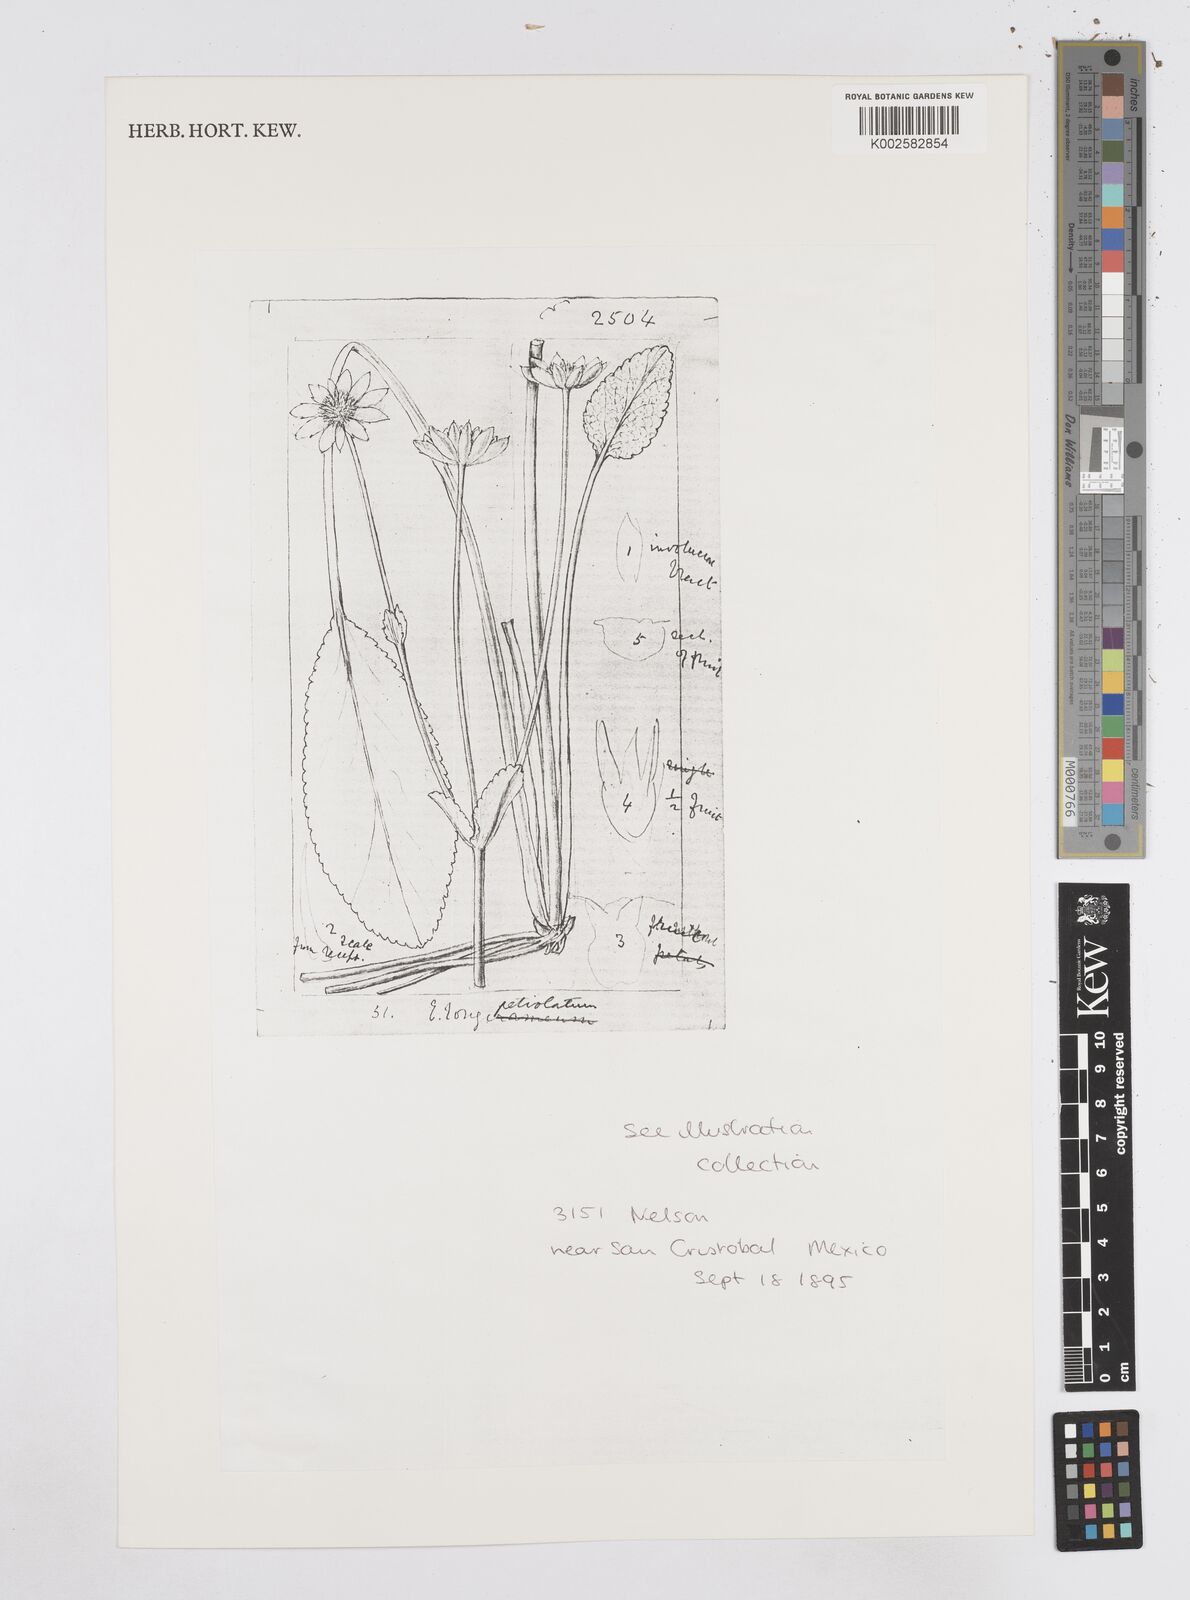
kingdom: Plantae
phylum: Tracheophyta
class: Magnoliopsida
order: Apiales
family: Apiaceae
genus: Eryngium
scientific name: Eryngium gracile
